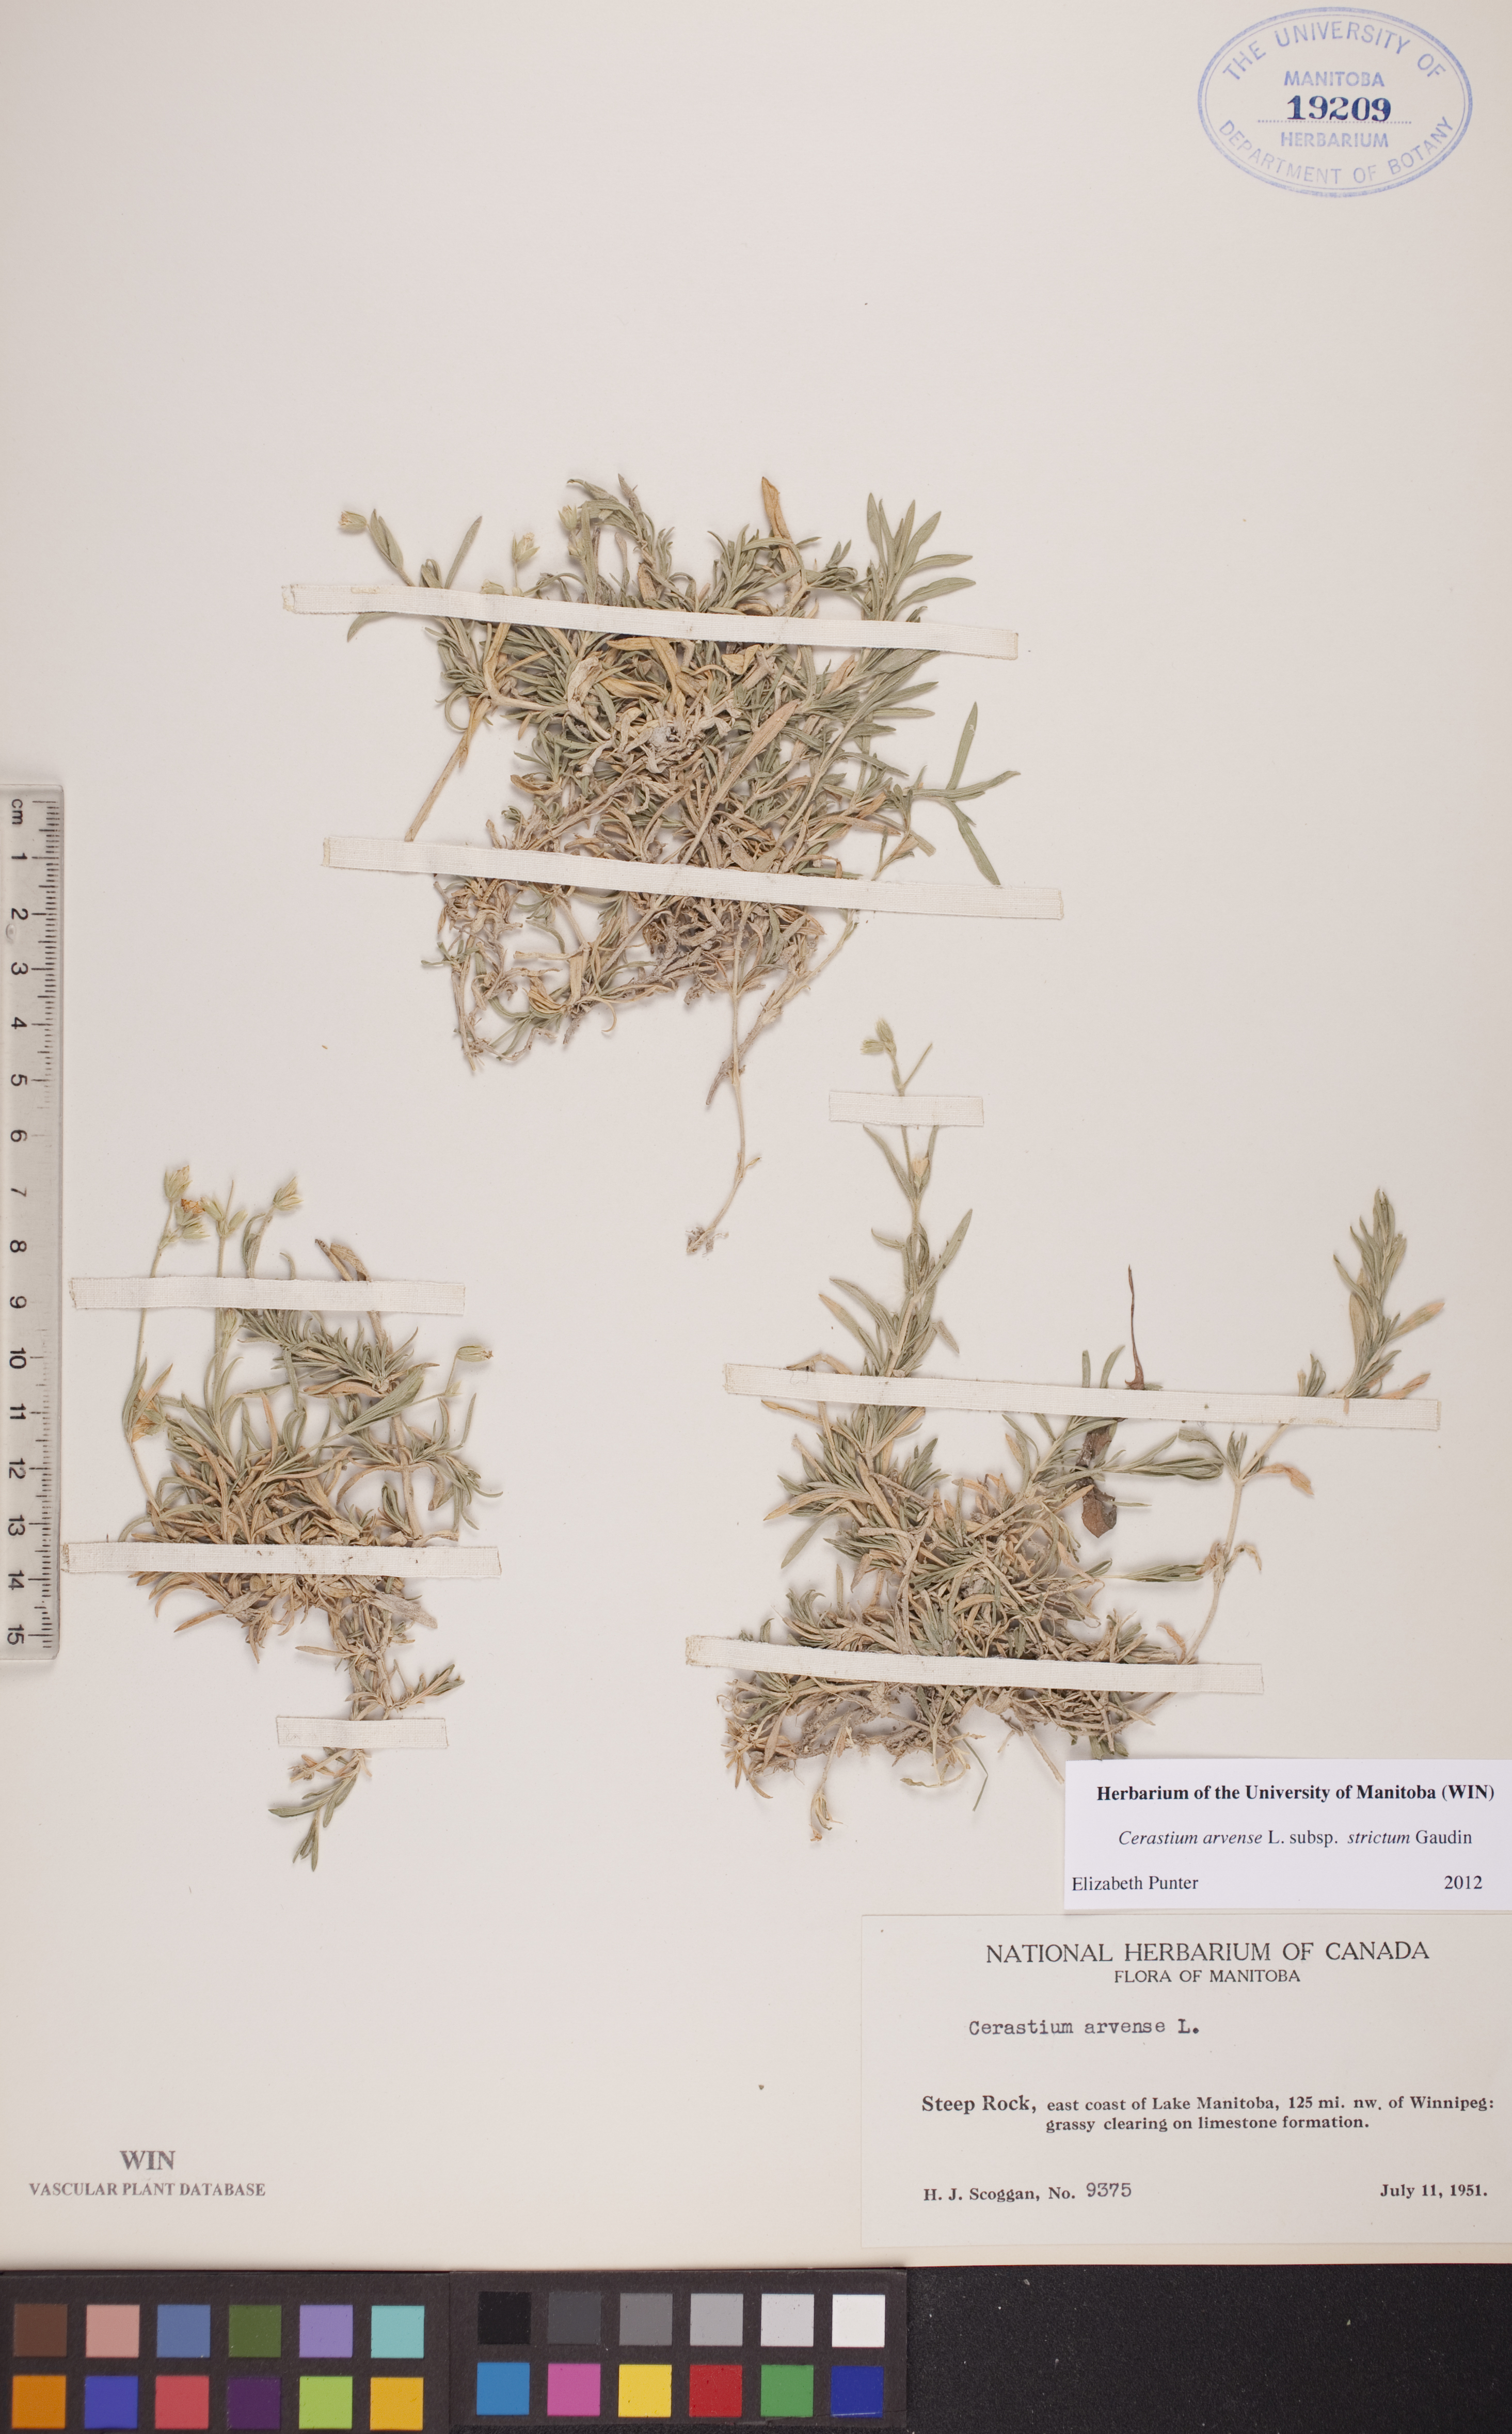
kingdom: Plantae
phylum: Tracheophyta
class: Magnoliopsida
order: Caryophyllales
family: Caryophyllaceae
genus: Cerastium
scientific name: Cerastium elongatum
